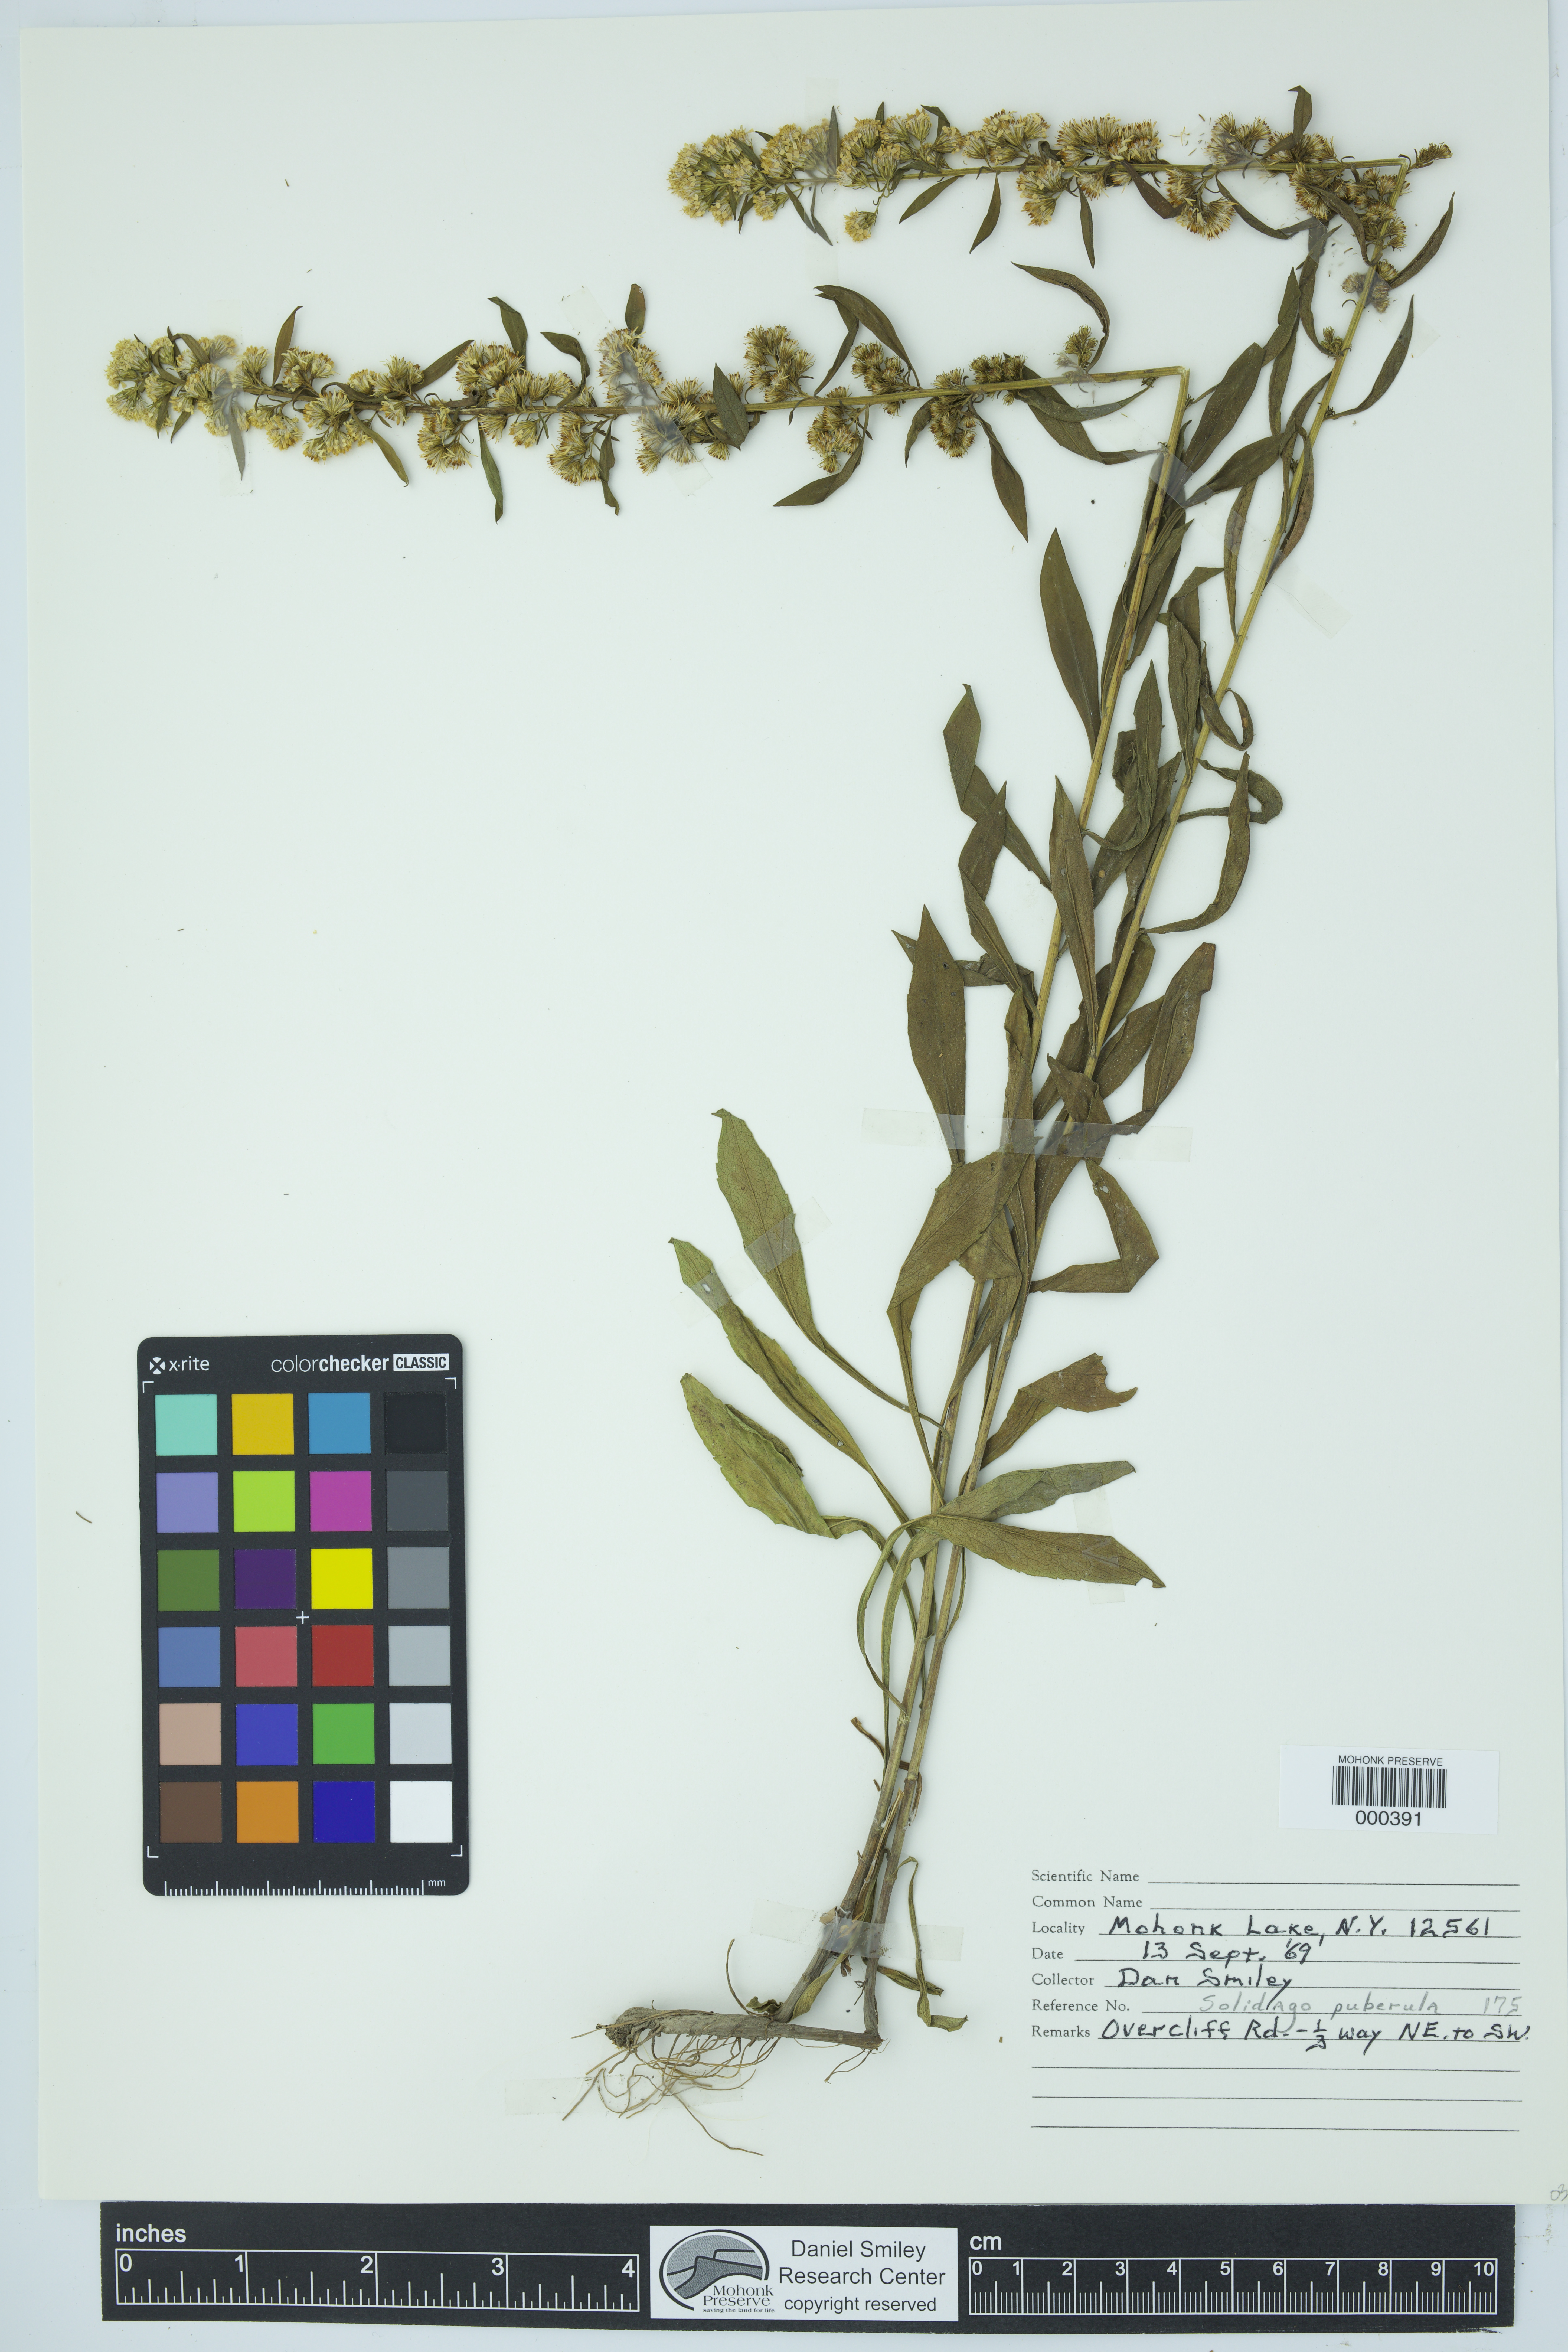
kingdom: Plantae
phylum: Tracheophyta
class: Magnoliopsida
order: Asterales
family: Asteraceae
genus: Solidago
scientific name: Solidago puberula
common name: Downy goldenrod
